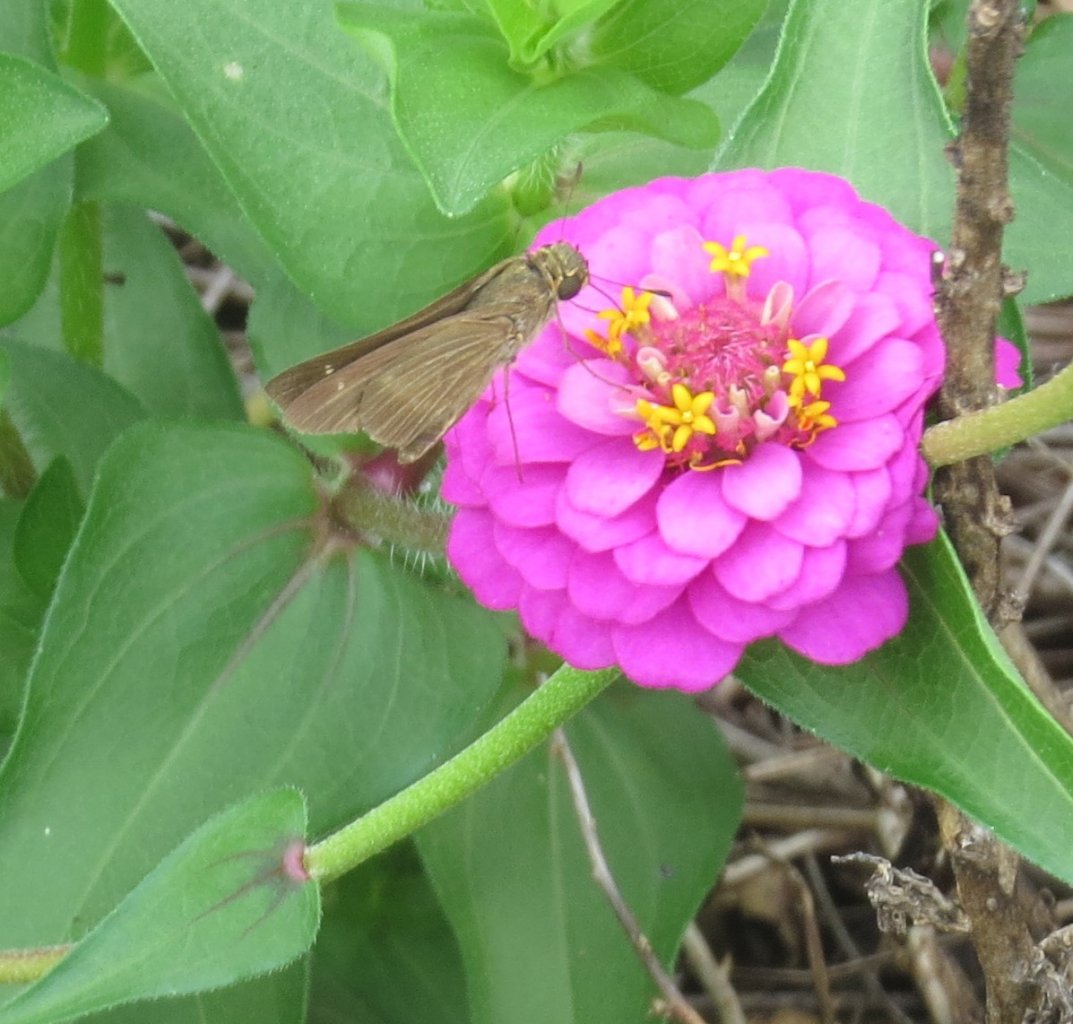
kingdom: Animalia
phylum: Arthropoda
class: Insecta
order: Lepidoptera
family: Hesperiidae
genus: Panoquina
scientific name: Panoquina ocola
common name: Ocola Skipper
